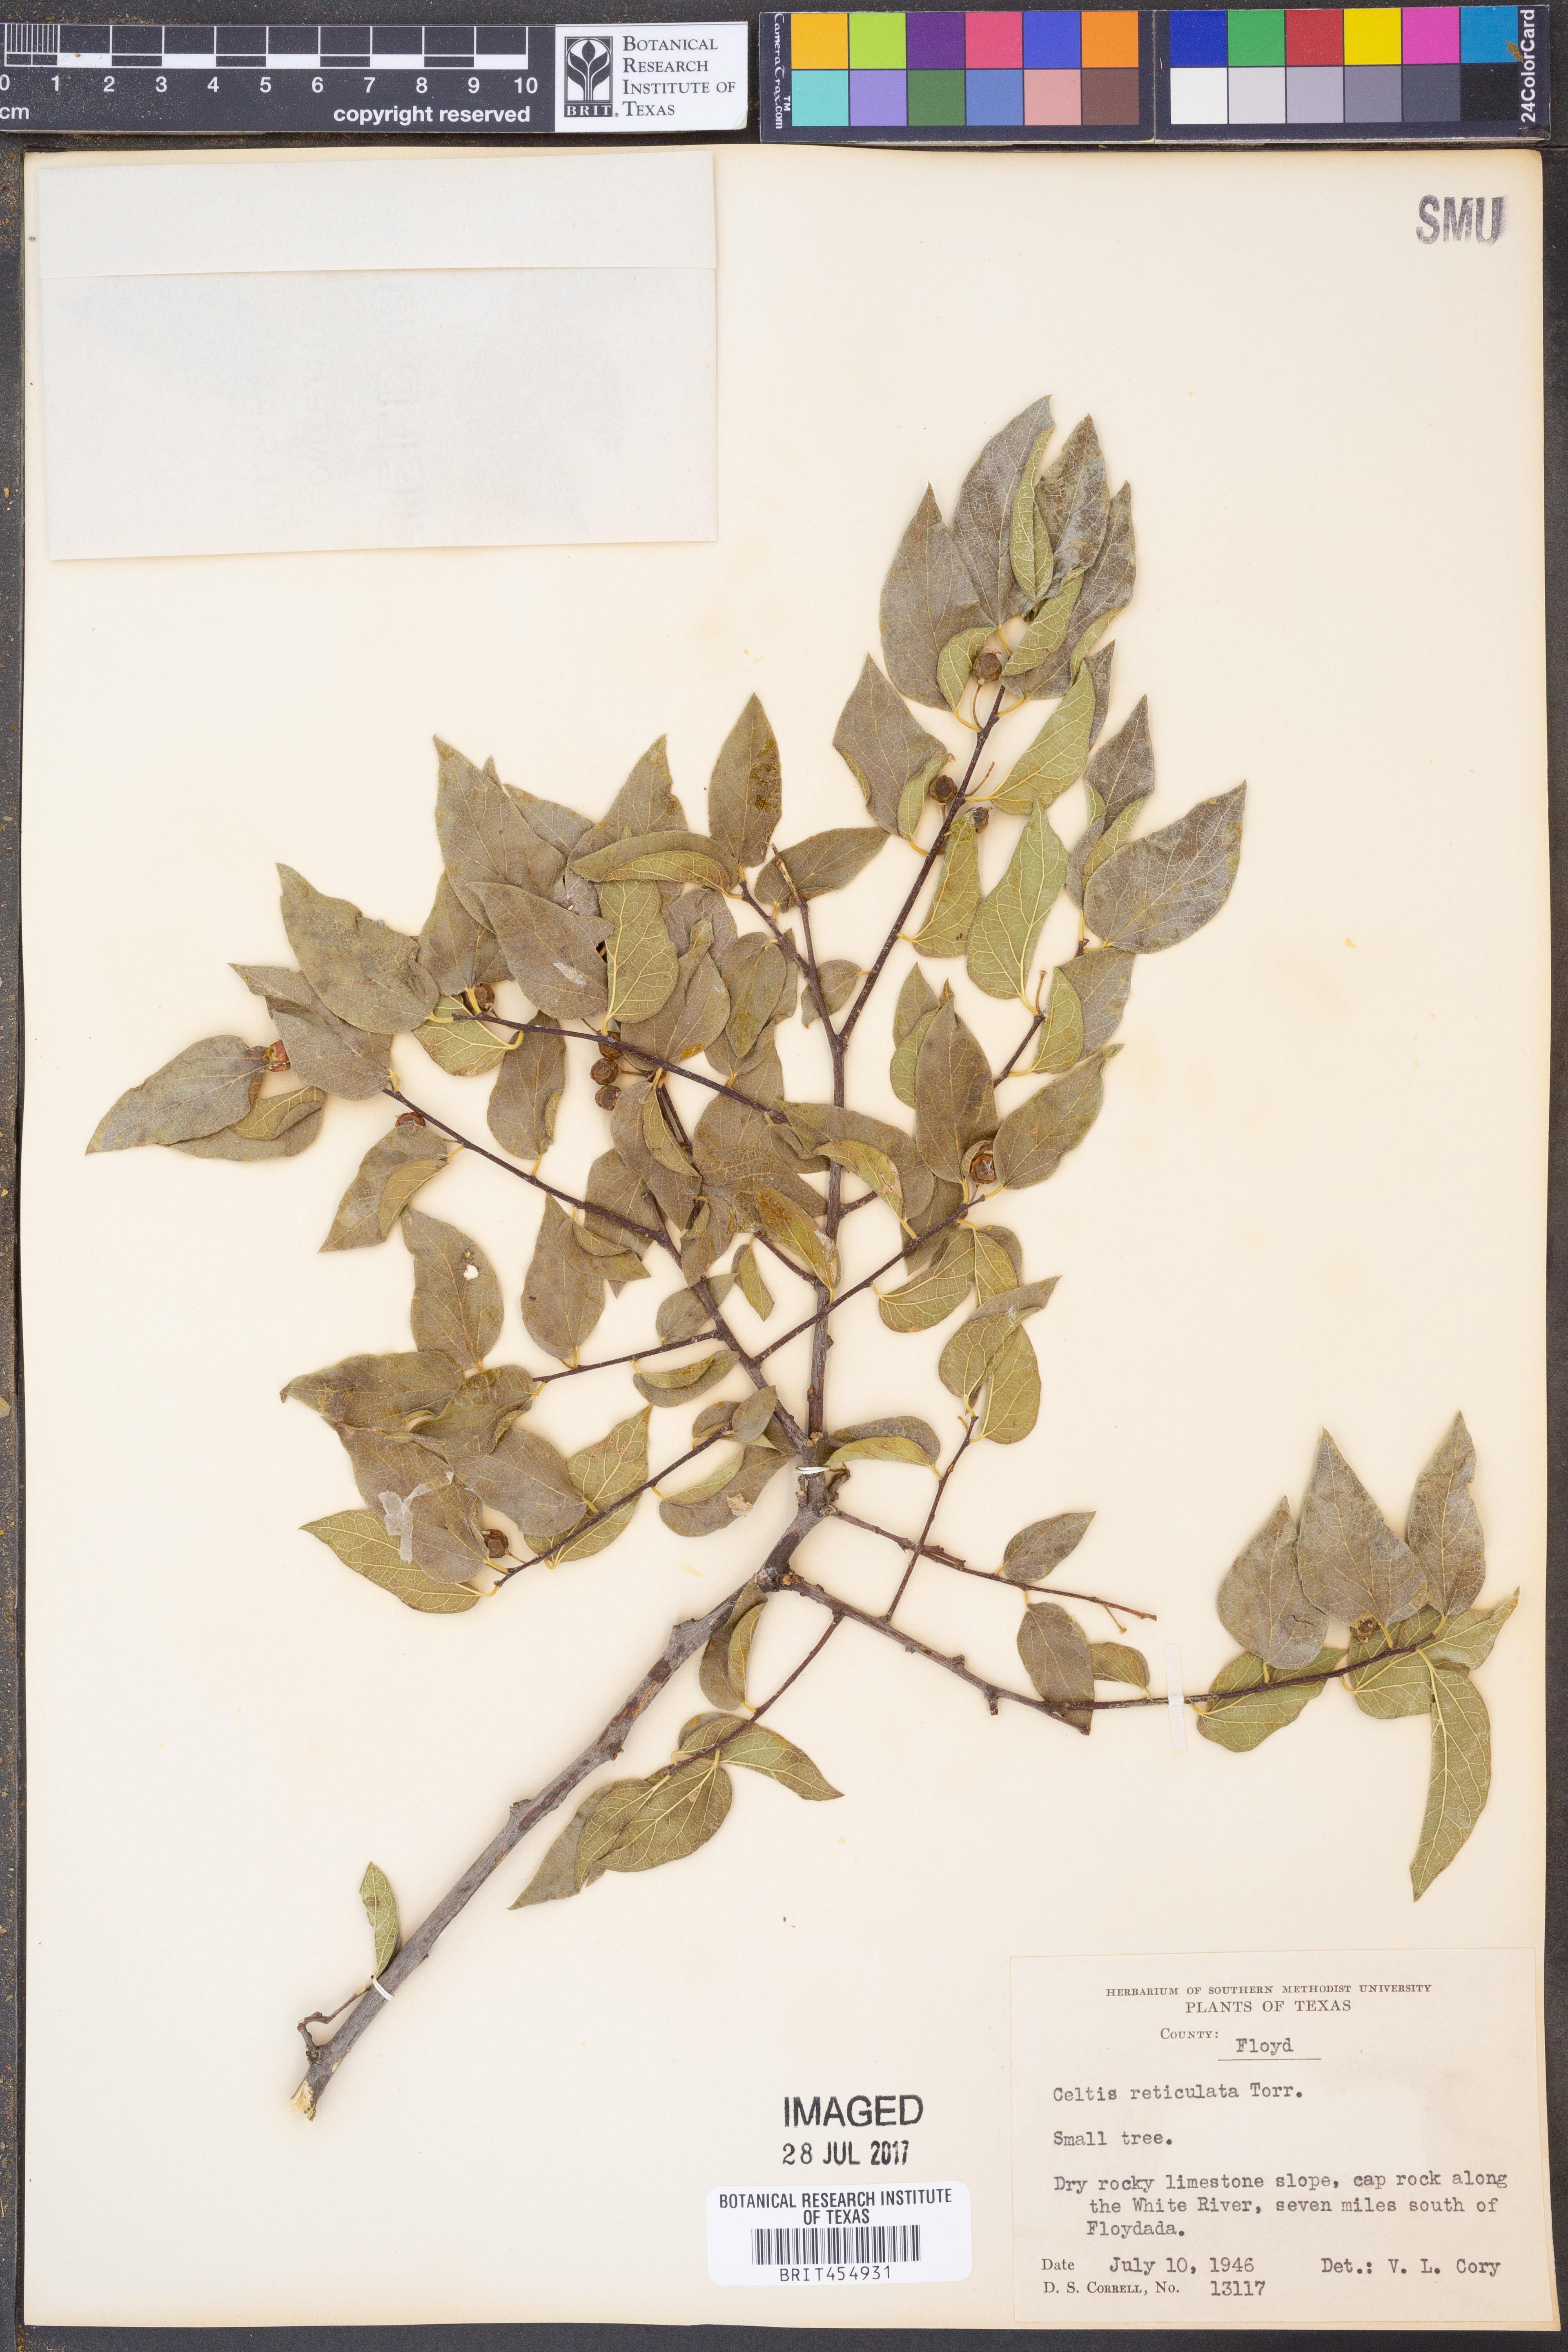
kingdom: Plantae
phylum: Tracheophyta
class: Magnoliopsida
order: Rosales
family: Cannabaceae
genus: Celtis
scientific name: Celtis reticulata
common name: Netleaf hackberry
